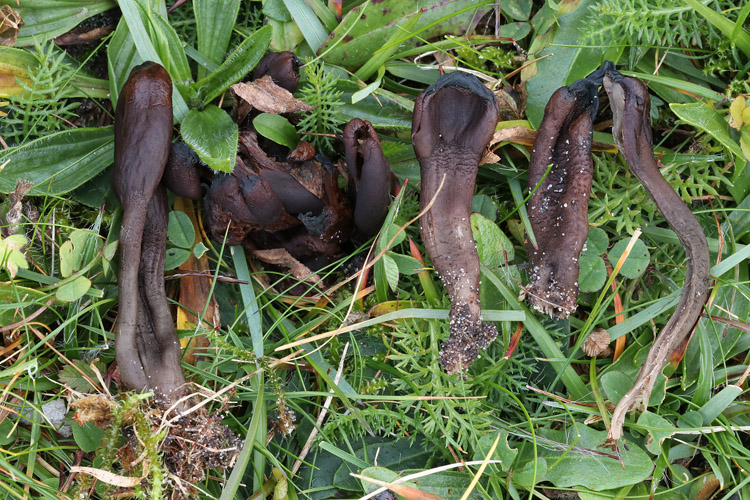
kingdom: Fungi
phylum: Ascomycota
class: Geoglossomycetes
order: Geoglossales
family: Geoglossaceae
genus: Geoglossum
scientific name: Geoglossum atropurpureum
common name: purpursort farvetunge
